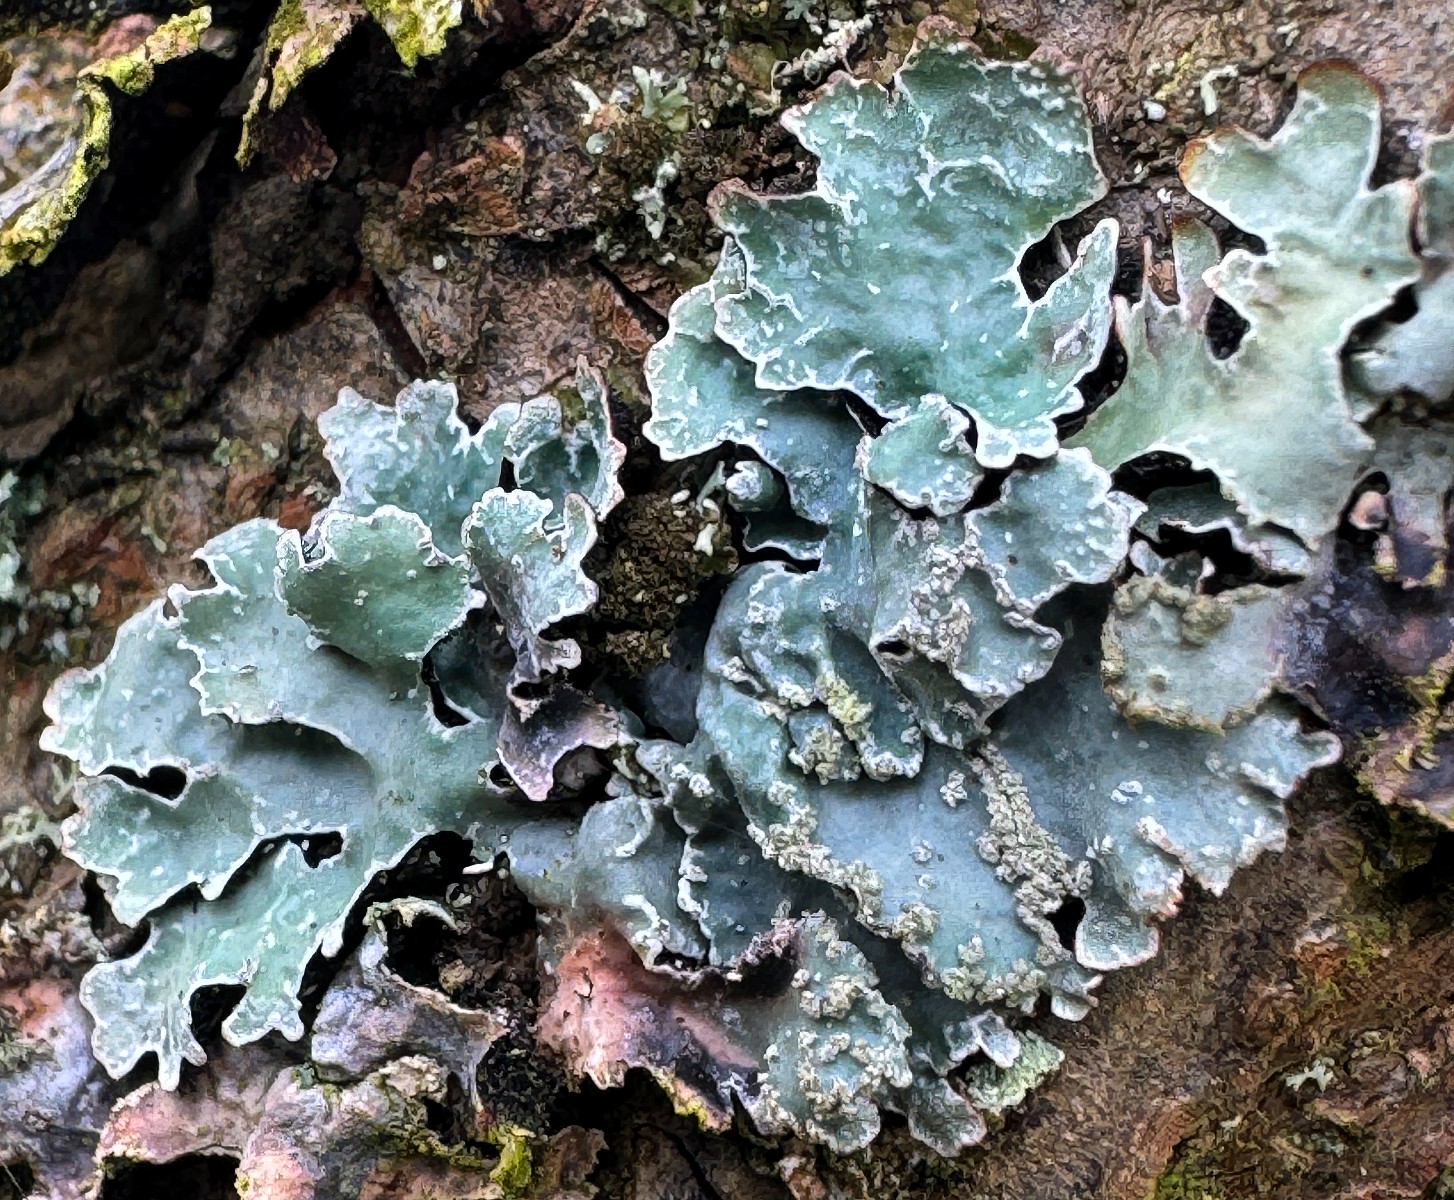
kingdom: Fungi
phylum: Ascomycota
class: Lecanoromycetes
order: Lecanorales
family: Parmeliaceae
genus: Parmelia
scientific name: Parmelia sulcata
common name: rynket skållav
